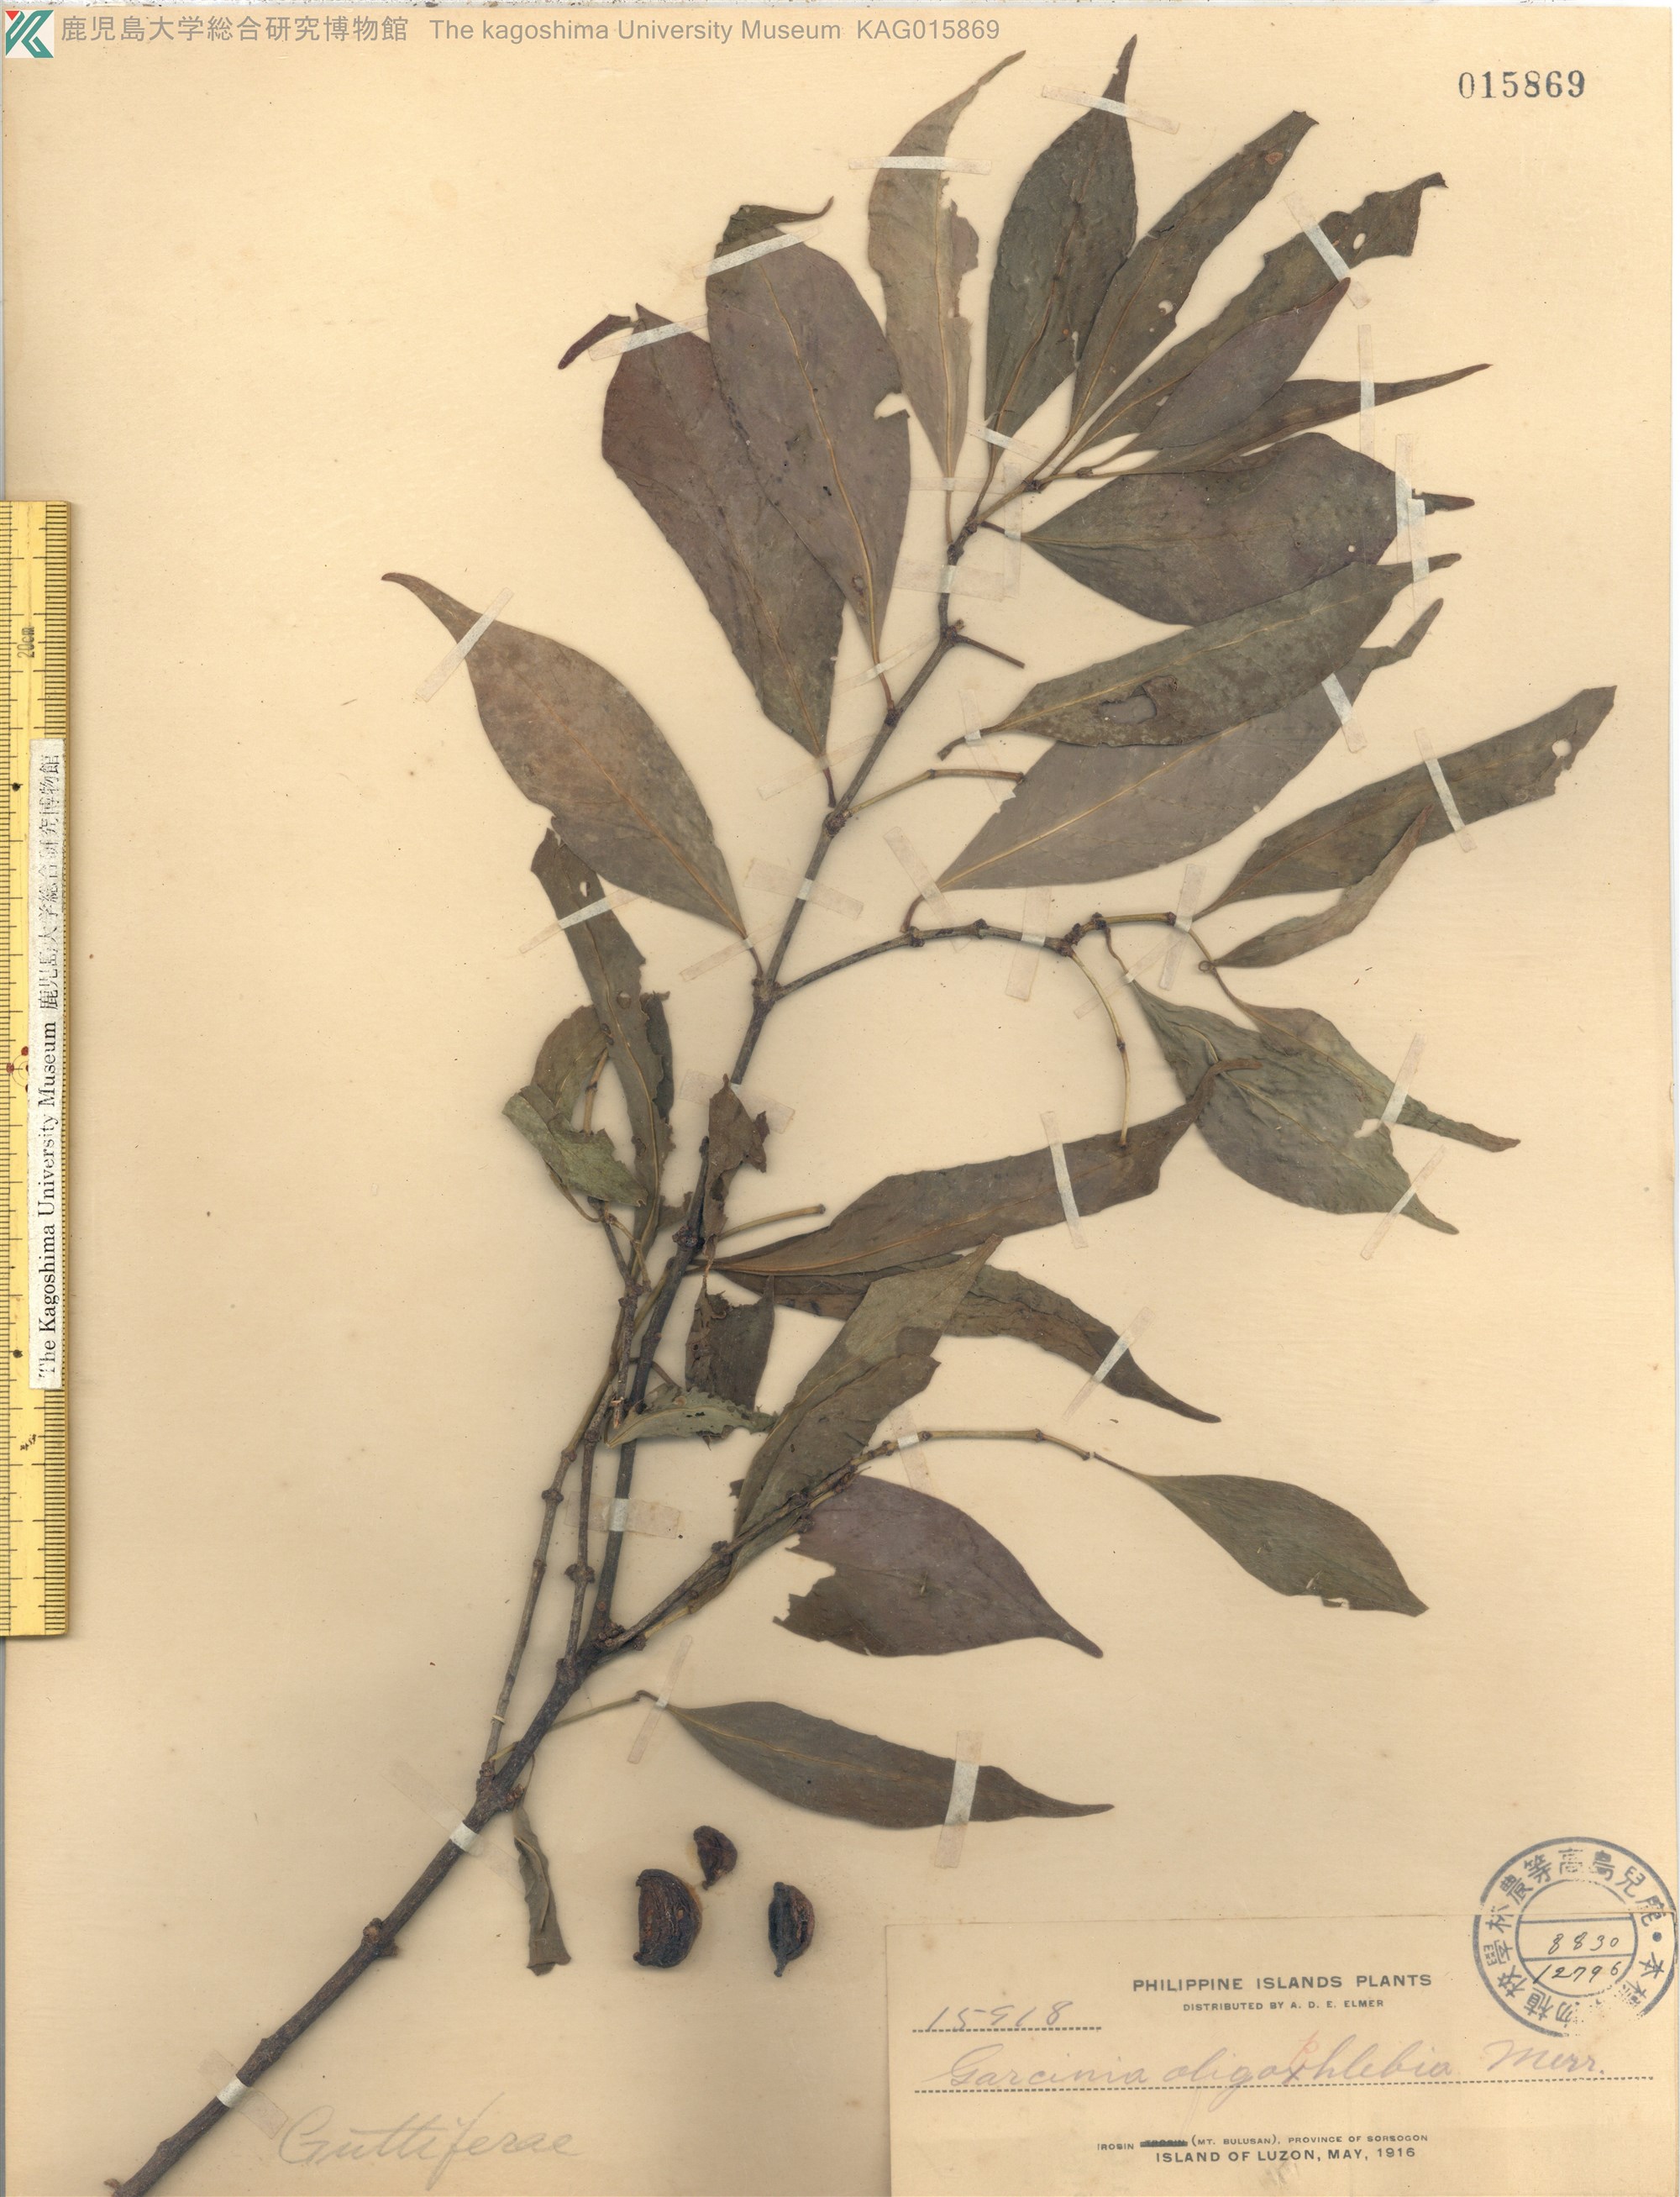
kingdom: Plantae
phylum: Tracheophyta
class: Magnoliopsida
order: Malpighiales
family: Clusiaceae
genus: Garcinia
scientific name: Garcinia rubra
